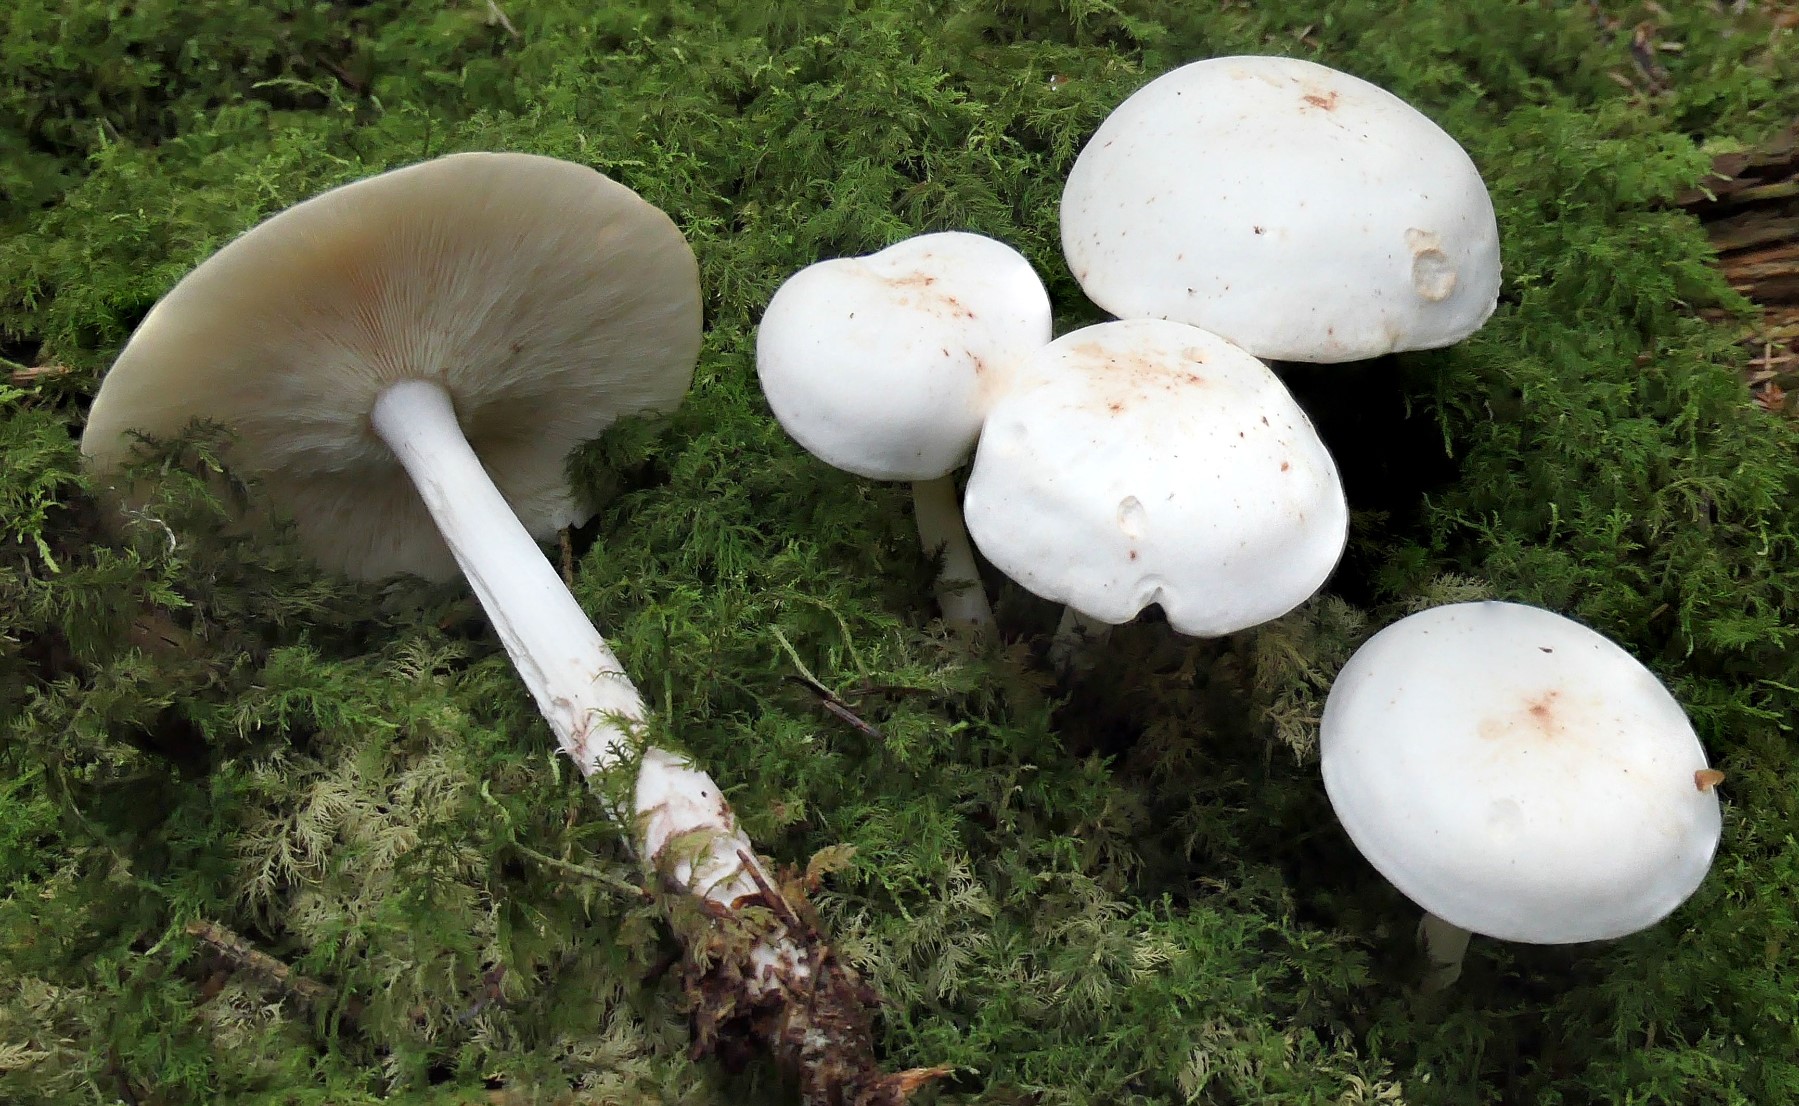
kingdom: Fungi
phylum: Basidiomycota
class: Agaricomycetes
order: Agaricales
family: Omphalotaceae
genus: Rhodocollybia
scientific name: Rhodocollybia maculata
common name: plettet fladhat
